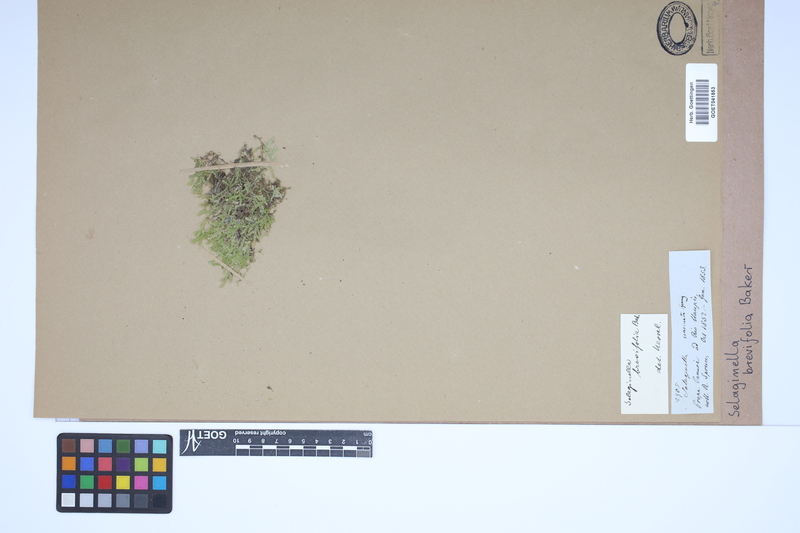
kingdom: Plantae
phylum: Tracheophyta
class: Lycopodiopsida
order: Selaginellales
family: Selaginellaceae
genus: Selaginella
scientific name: Selaginella brevifolia
